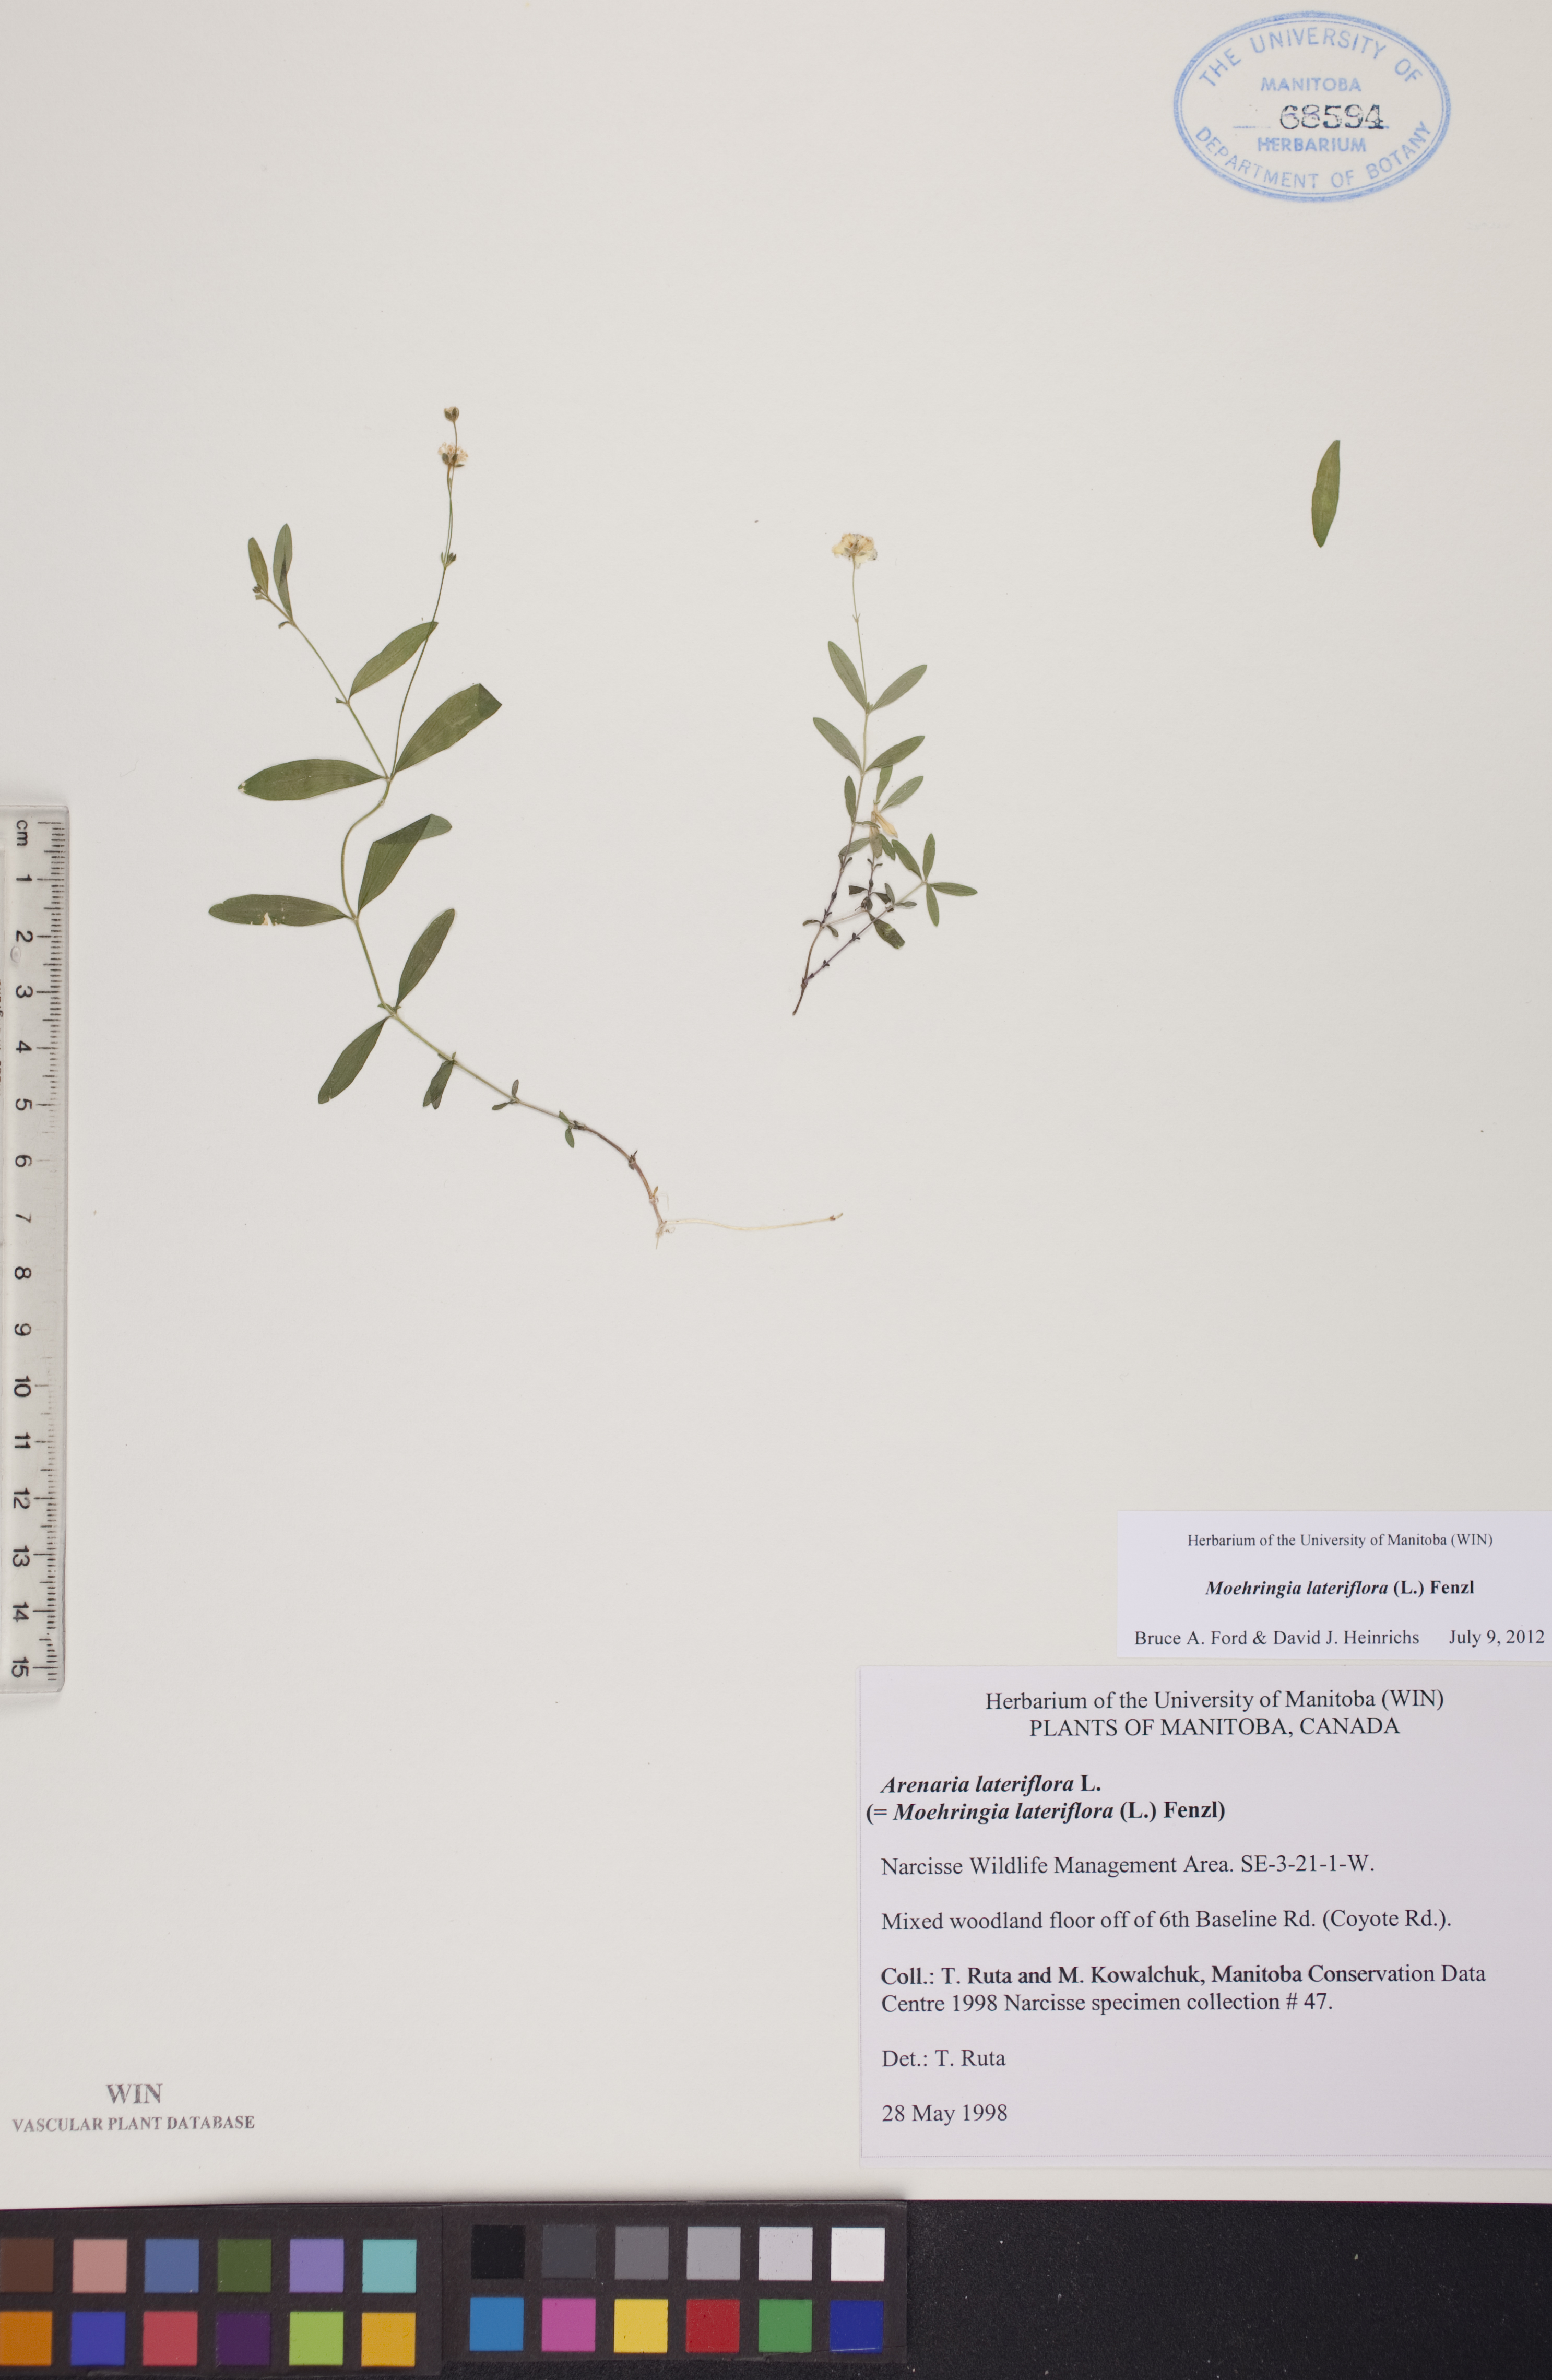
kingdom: Plantae
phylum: Tracheophyta
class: Magnoliopsida
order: Caryophyllales
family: Caryophyllaceae
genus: Moehringia
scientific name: Moehringia lateriflora
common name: Blunt-leaved sandwort
